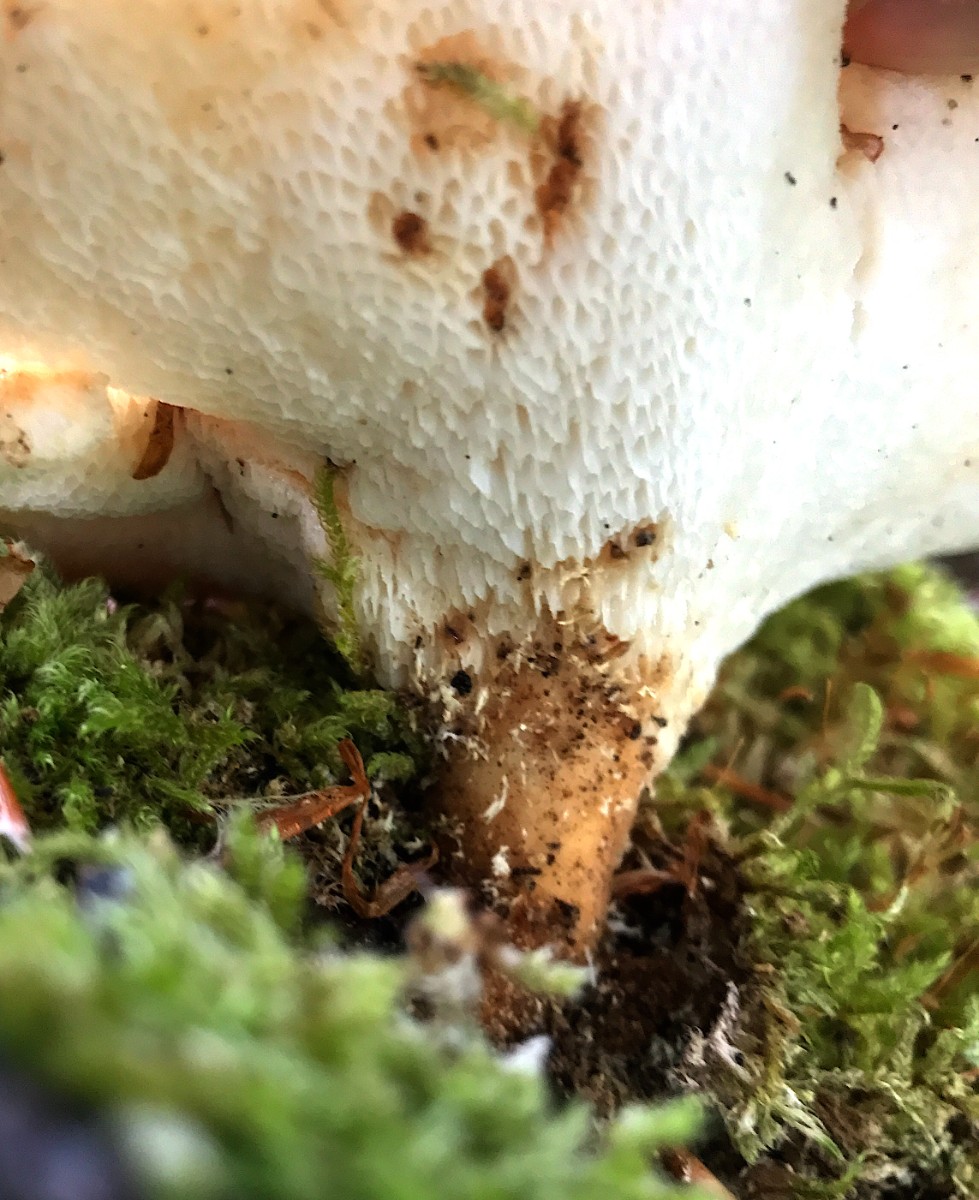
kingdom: Fungi
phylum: Basidiomycota
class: Agaricomycetes
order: Polyporales
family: Polyporaceae
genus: Cerioporus
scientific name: Cerioporus varius
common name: foranderlig stilkporesvamp
